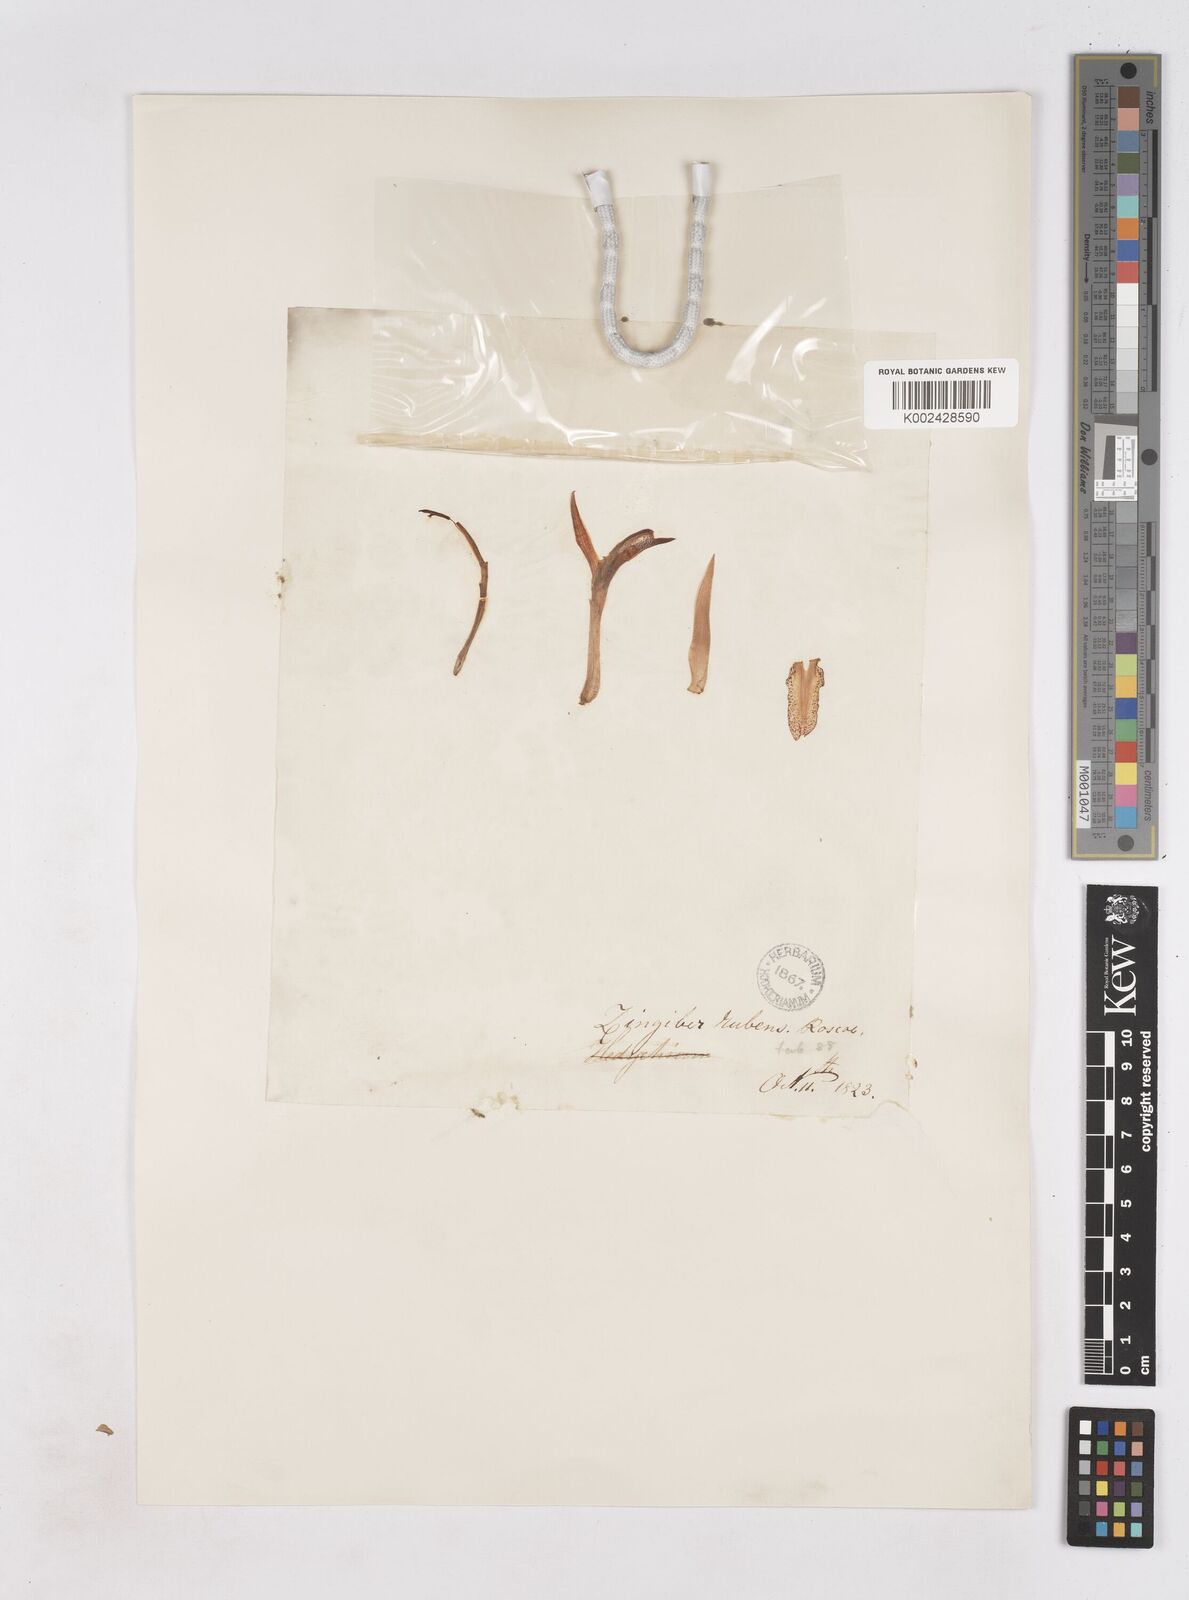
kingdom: Plantae
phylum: Tracheophyta
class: Liliopsida
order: Zingiberales
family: Zingiberaceae
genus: Zingiber
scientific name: Zingiber rubens
